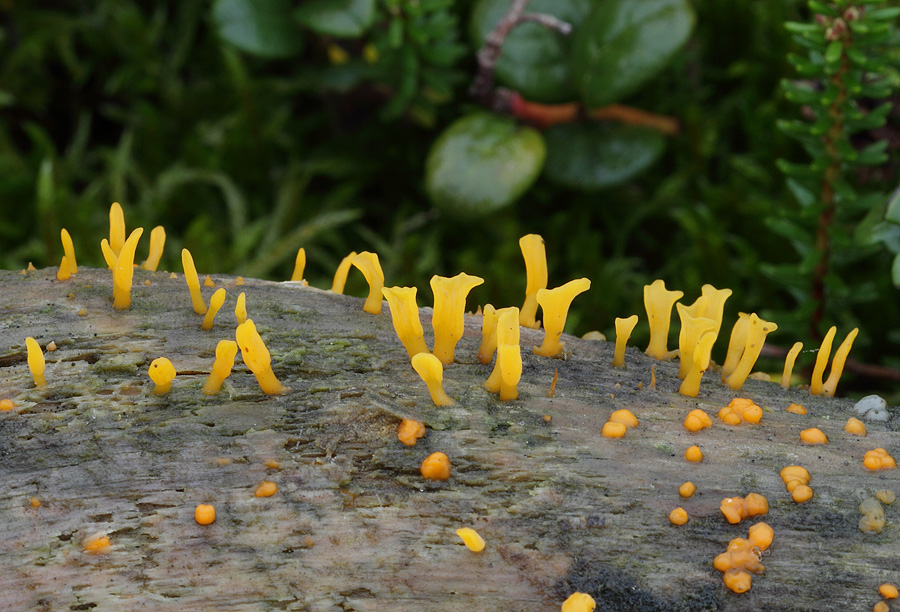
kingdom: Fungi
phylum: Basidiomycota
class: Dacrymycetes
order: Dacrymycetales
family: Dacrymycetaceae
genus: Calocera
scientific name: Calocera furcata
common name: fyrre-guldgaffel
